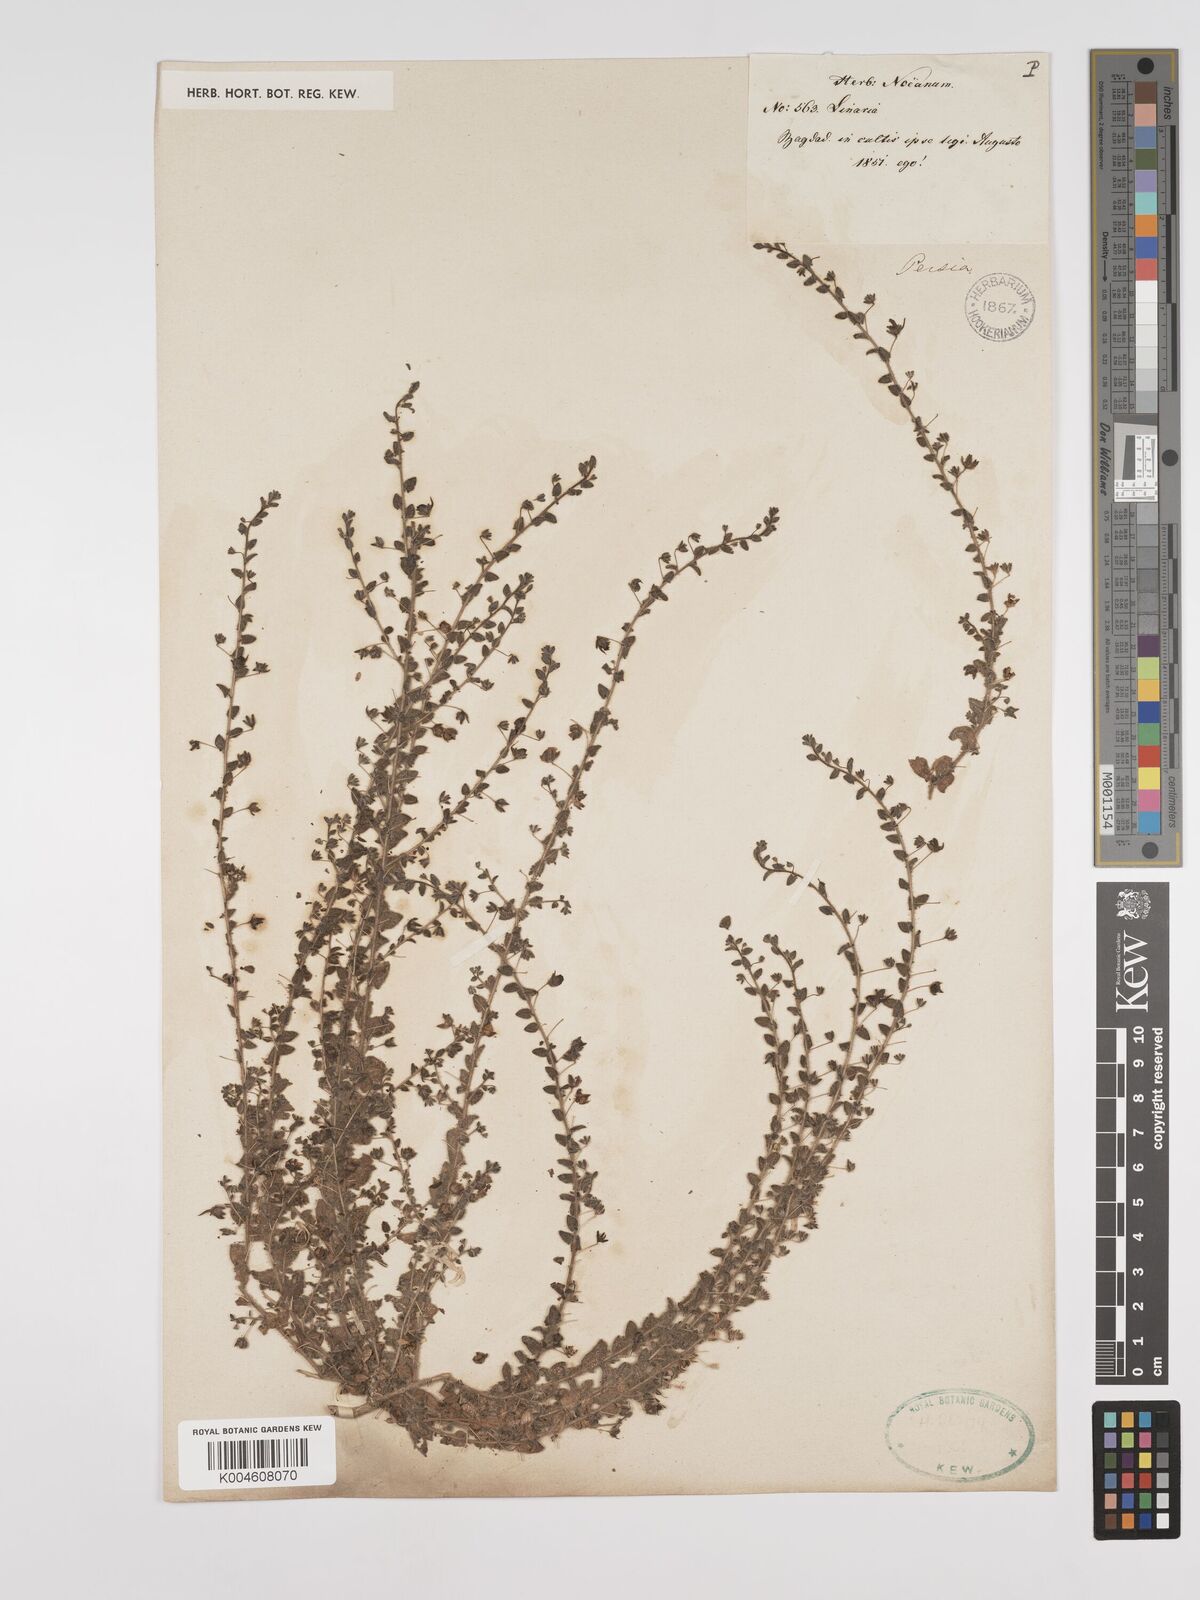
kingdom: Plantae
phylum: Tracheophyta
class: Magnoliopsida
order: Lamiales
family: Plantaginaceae
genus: Kickxia
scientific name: Kickxia elatine
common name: Sharp-leaved fluellen
